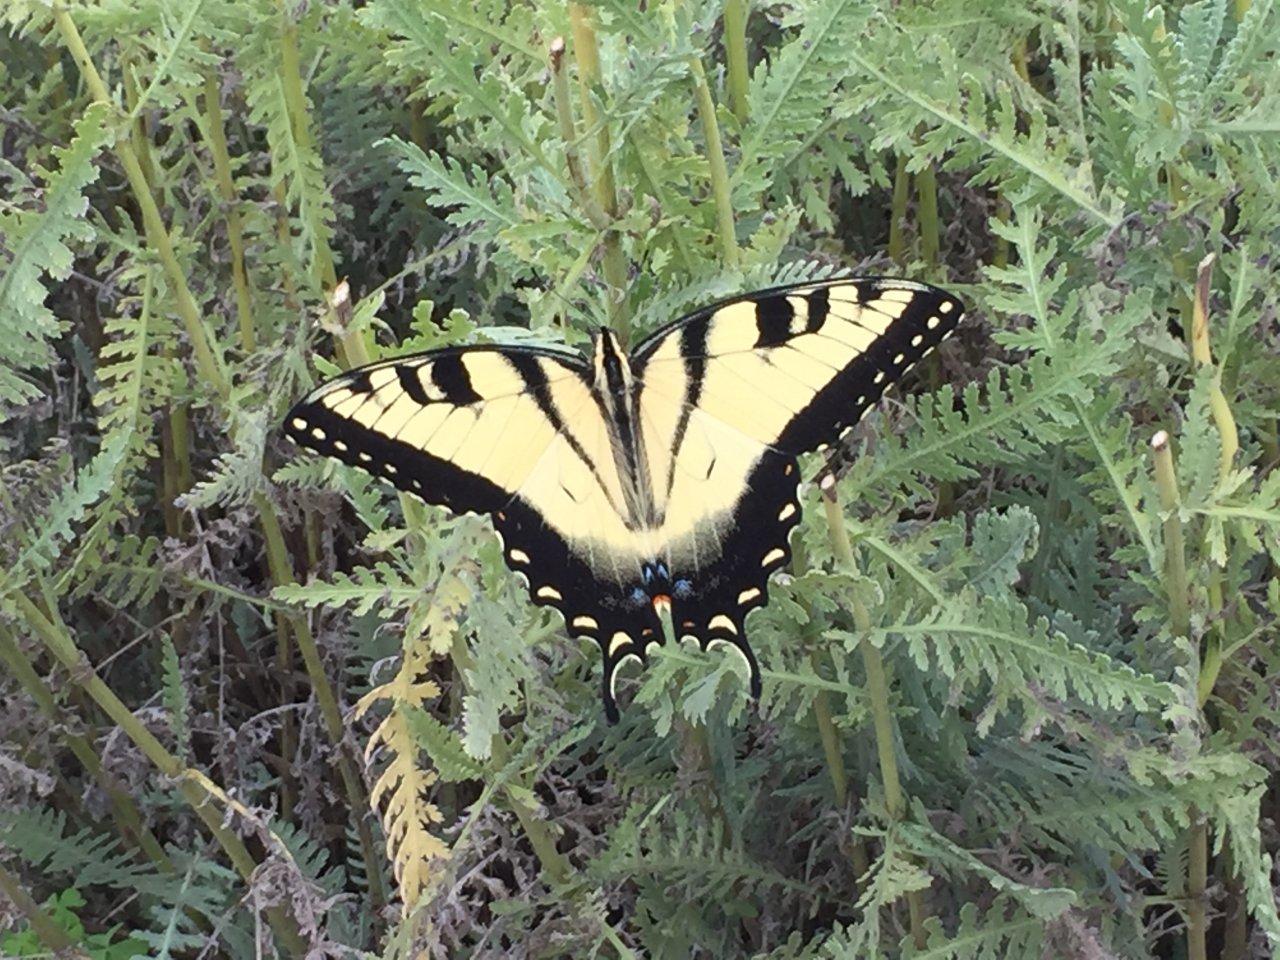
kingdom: Animalia
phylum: Arthropoda
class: Insecta
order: Lepidoptera
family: Papilionidae
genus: Pterourus
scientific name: Pterourus glaucus
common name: Eastern Tiger Swallowtail
